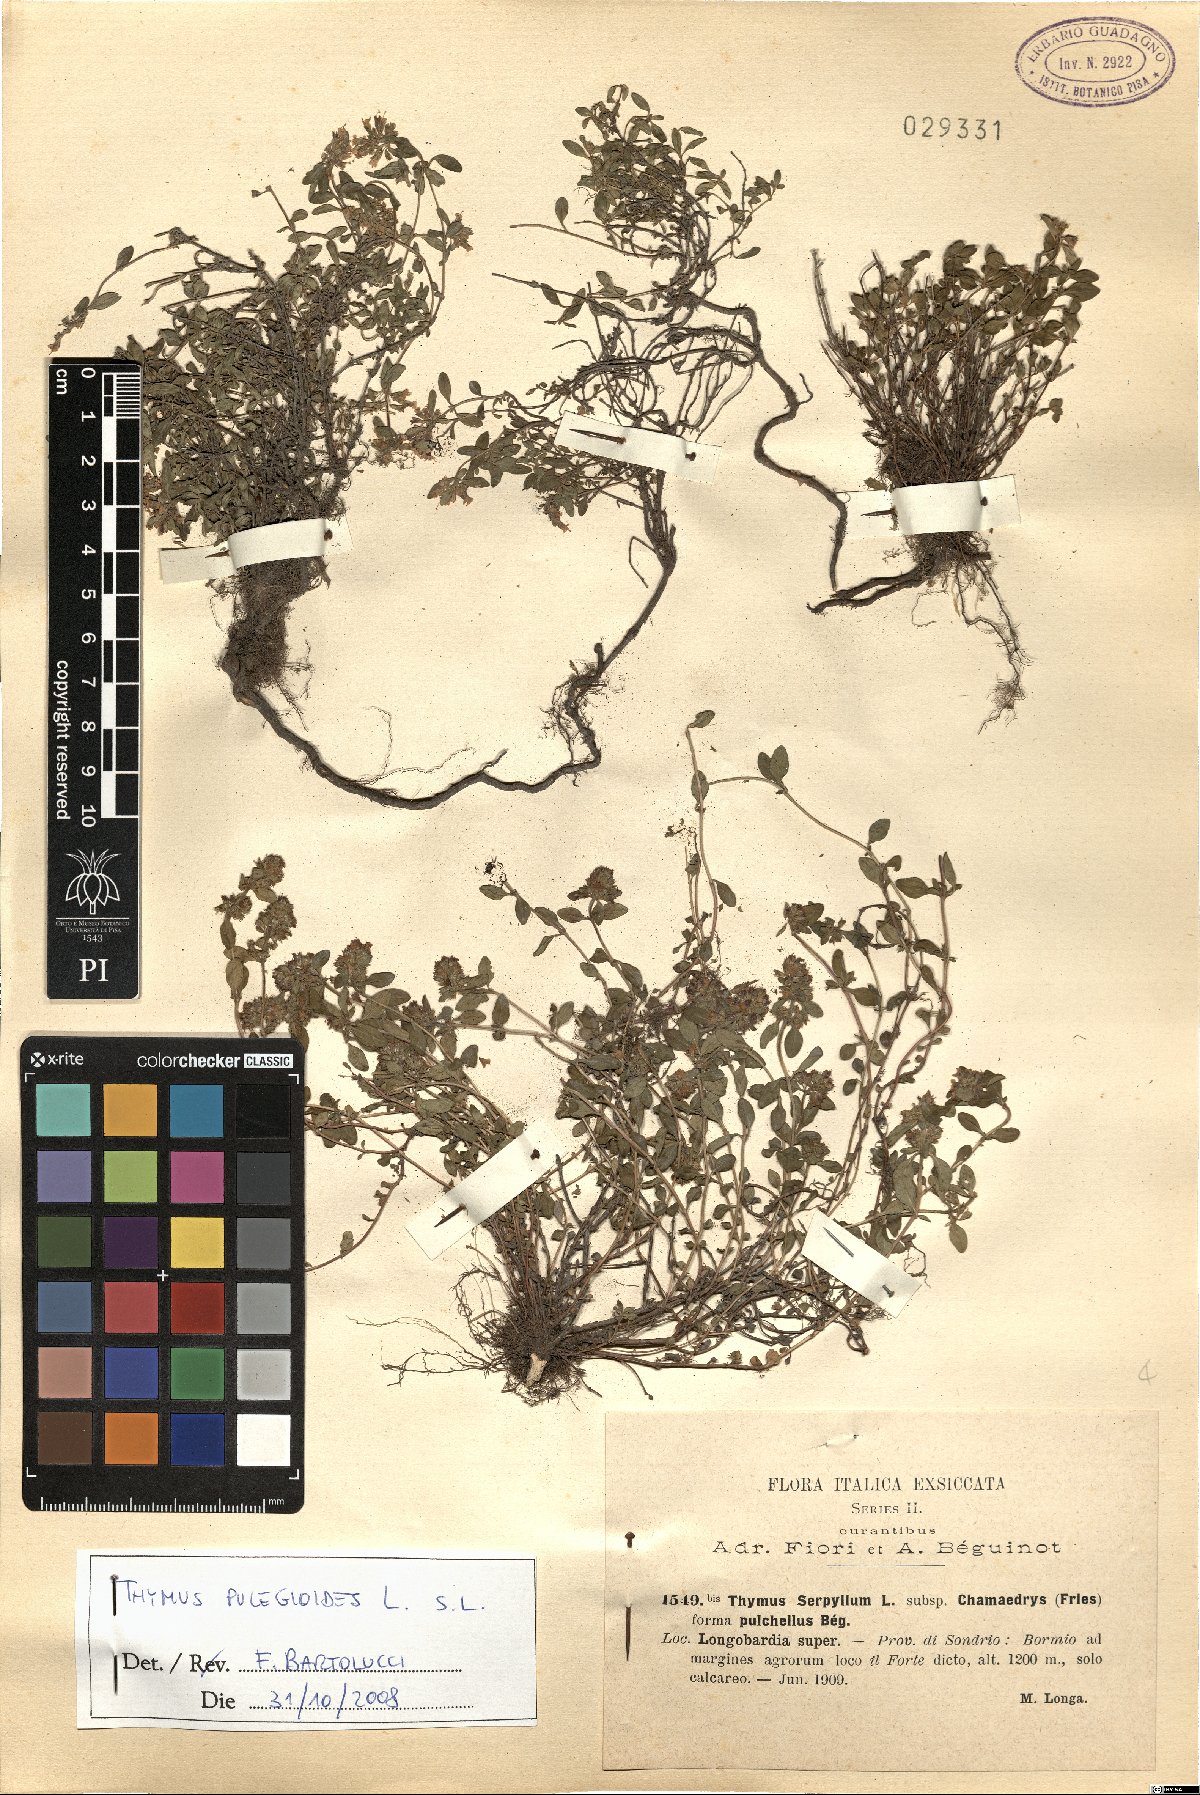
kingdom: Plantae
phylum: Tracheophyta
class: Magnoliopsida
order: Lamiales
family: Lamiaceae
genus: Thymus
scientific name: Thymus pulegioides
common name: Large thyme
